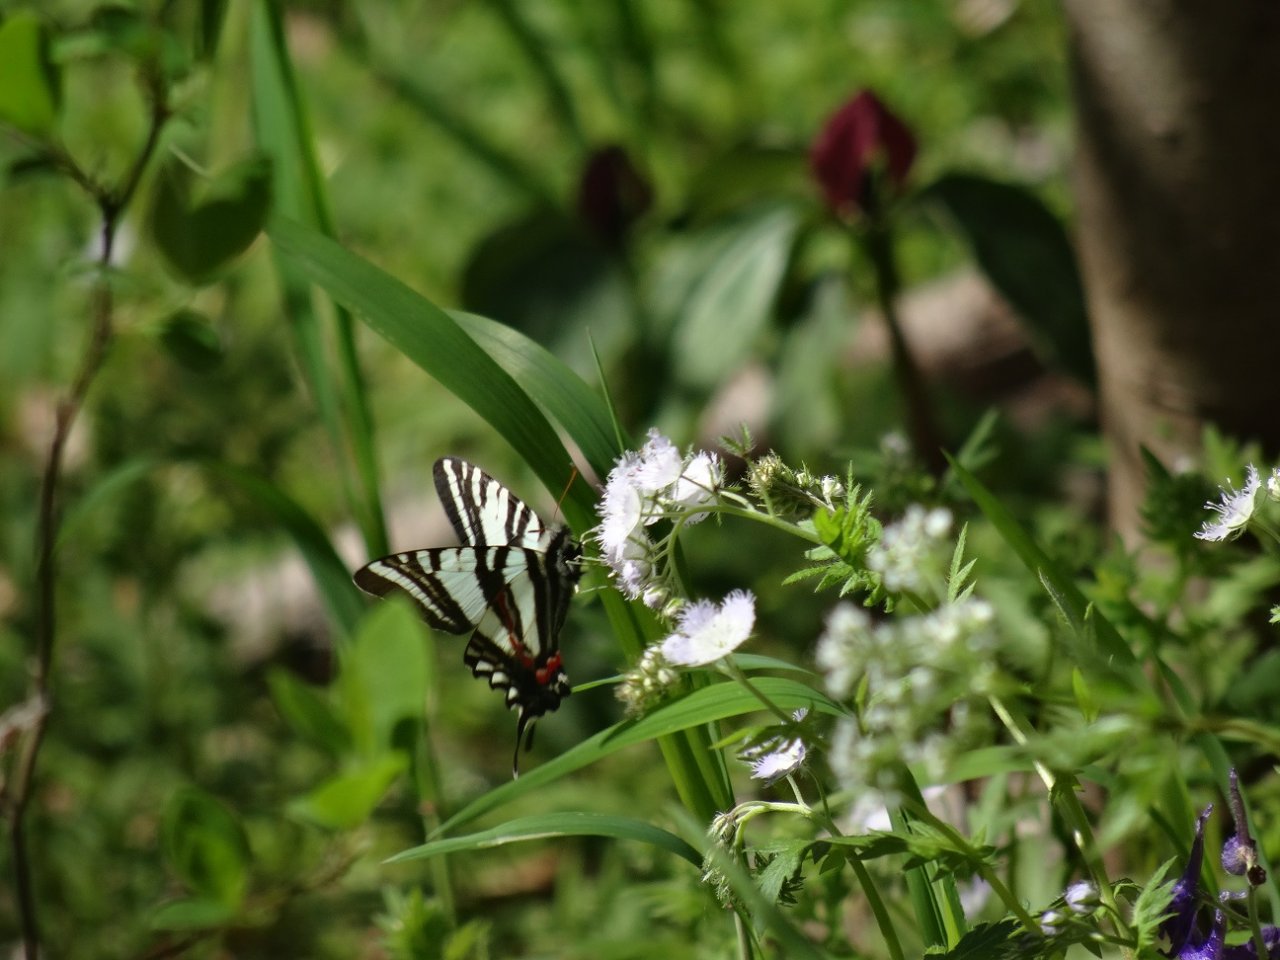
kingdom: Animalia
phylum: Arthropoda
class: Insecta
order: Lepidoptera
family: Papilionidae
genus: Protographium
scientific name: Protographium marcellus
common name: Zebra Swallowtail
